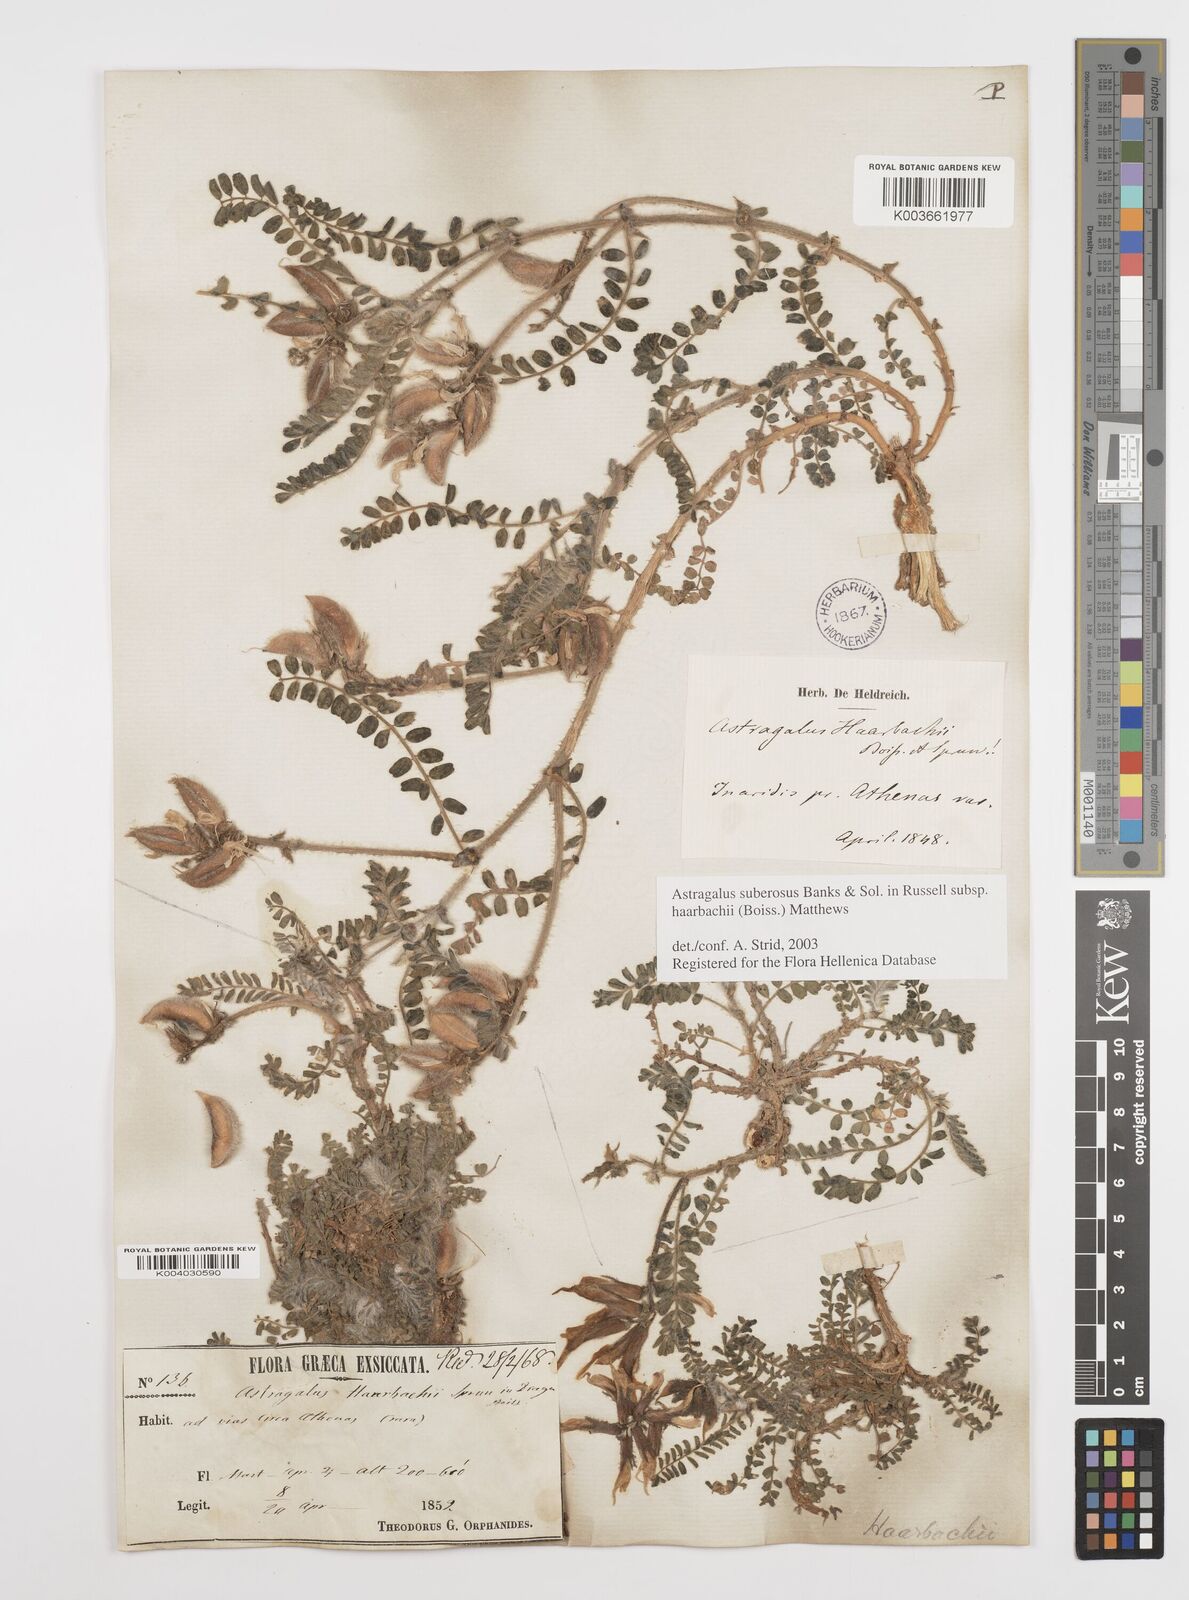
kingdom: Plantae
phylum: Tracheophyta
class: Magnoliopsida
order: Fabales
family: Fabaceae
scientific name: Fabaceae
